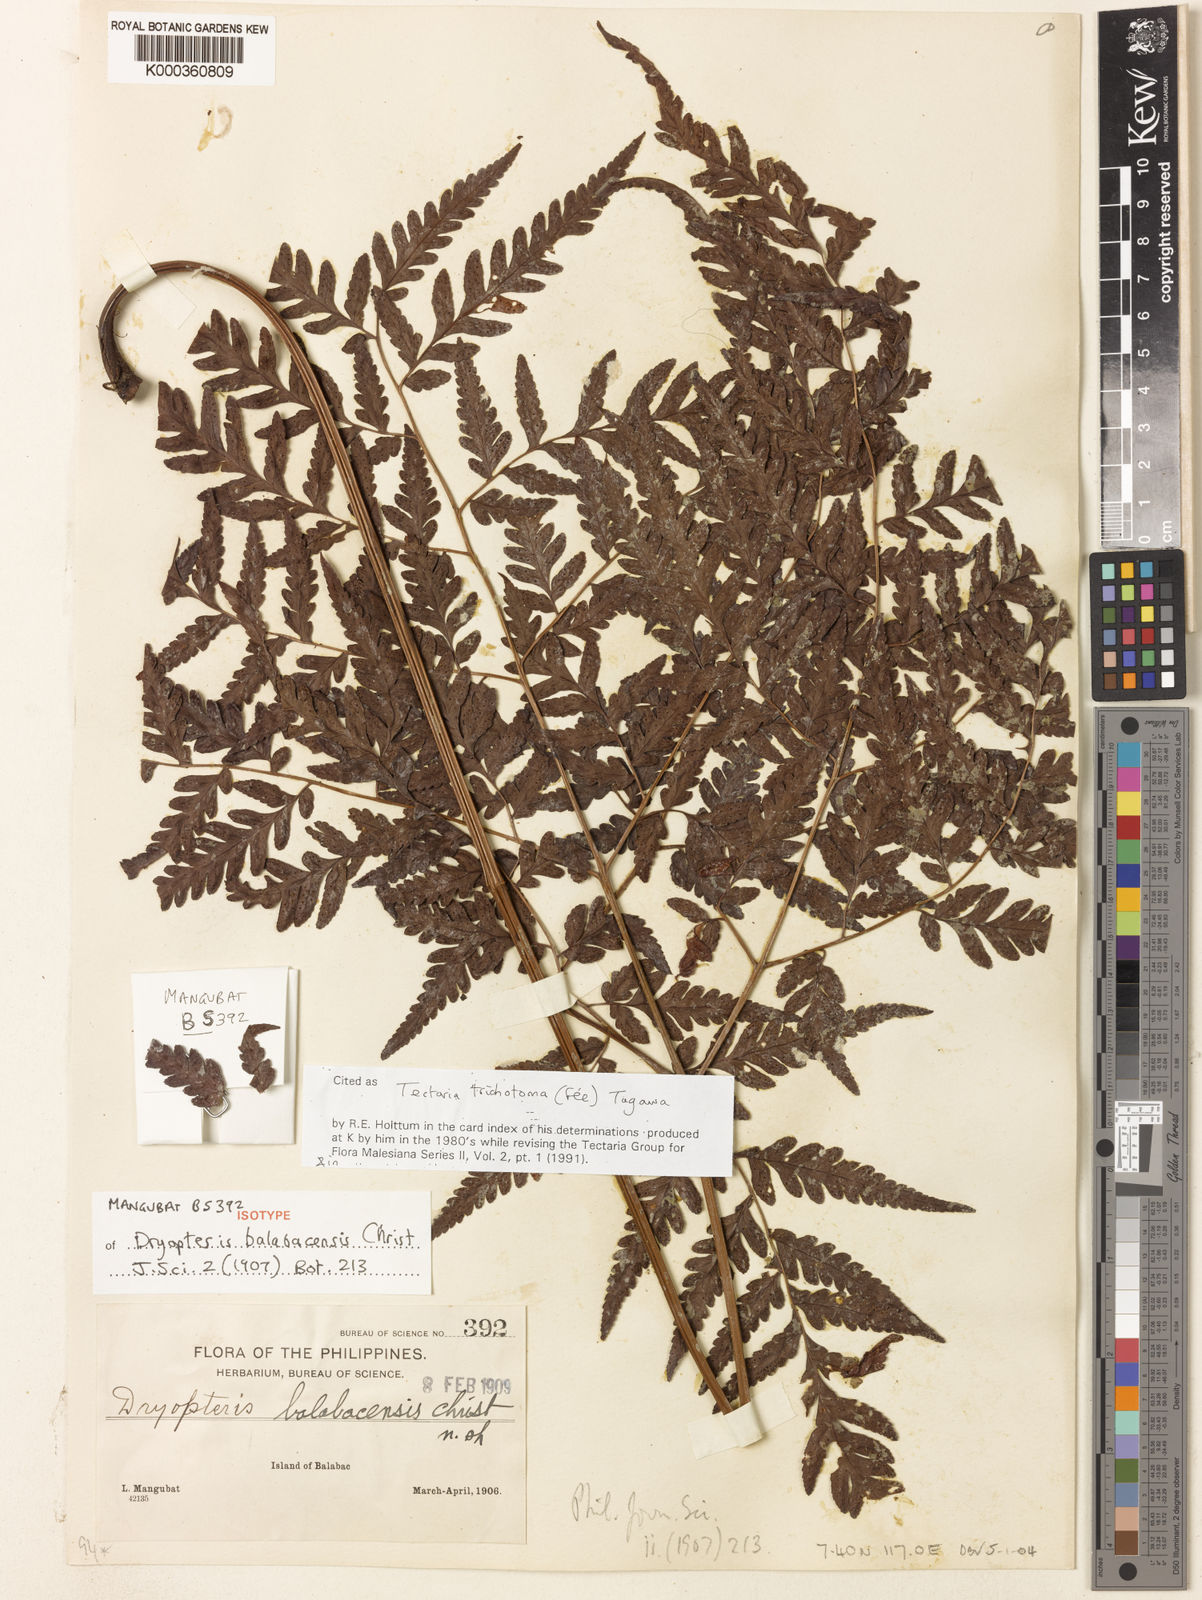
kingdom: Plantae
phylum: Tracheophyta
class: Polypodiopsida
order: Polypodiales
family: Tectariaceae
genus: Tectaria
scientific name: Tectaria
